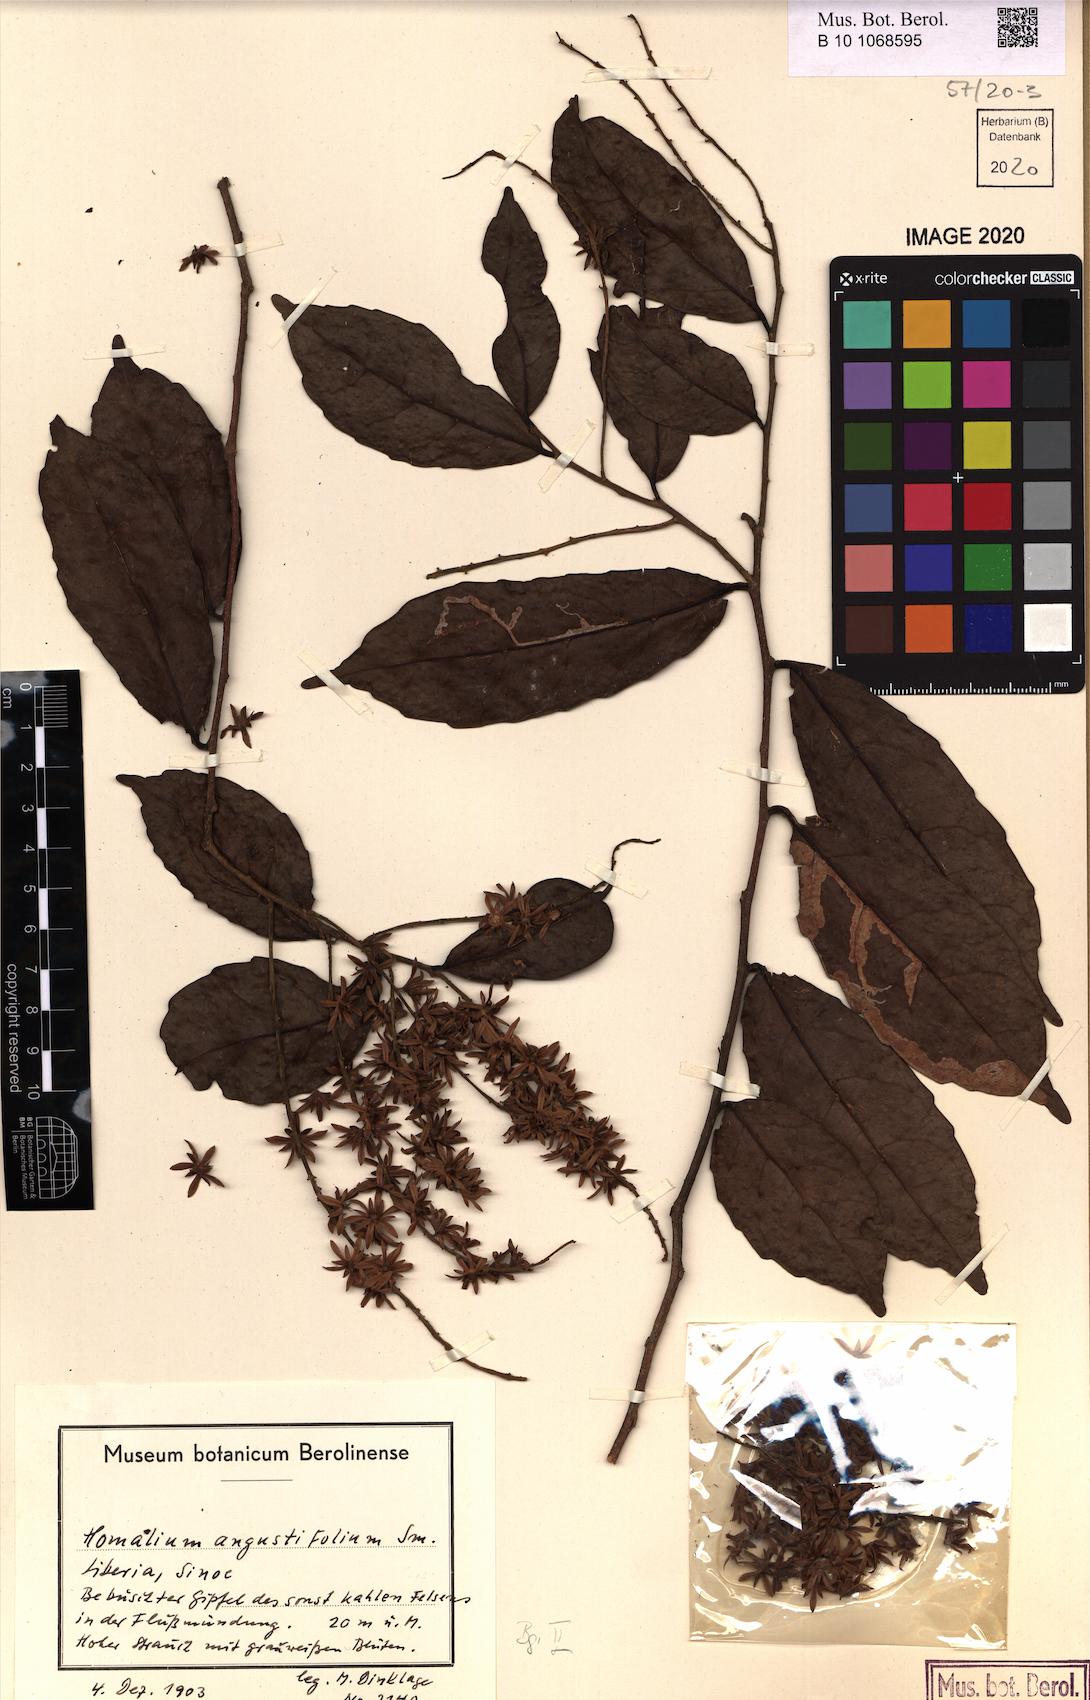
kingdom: Plantae
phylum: Tracheophyta
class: Magnoliopsida
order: Malpighiales
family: Salicaceae
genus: Homalium
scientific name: Homalium angustifolium
